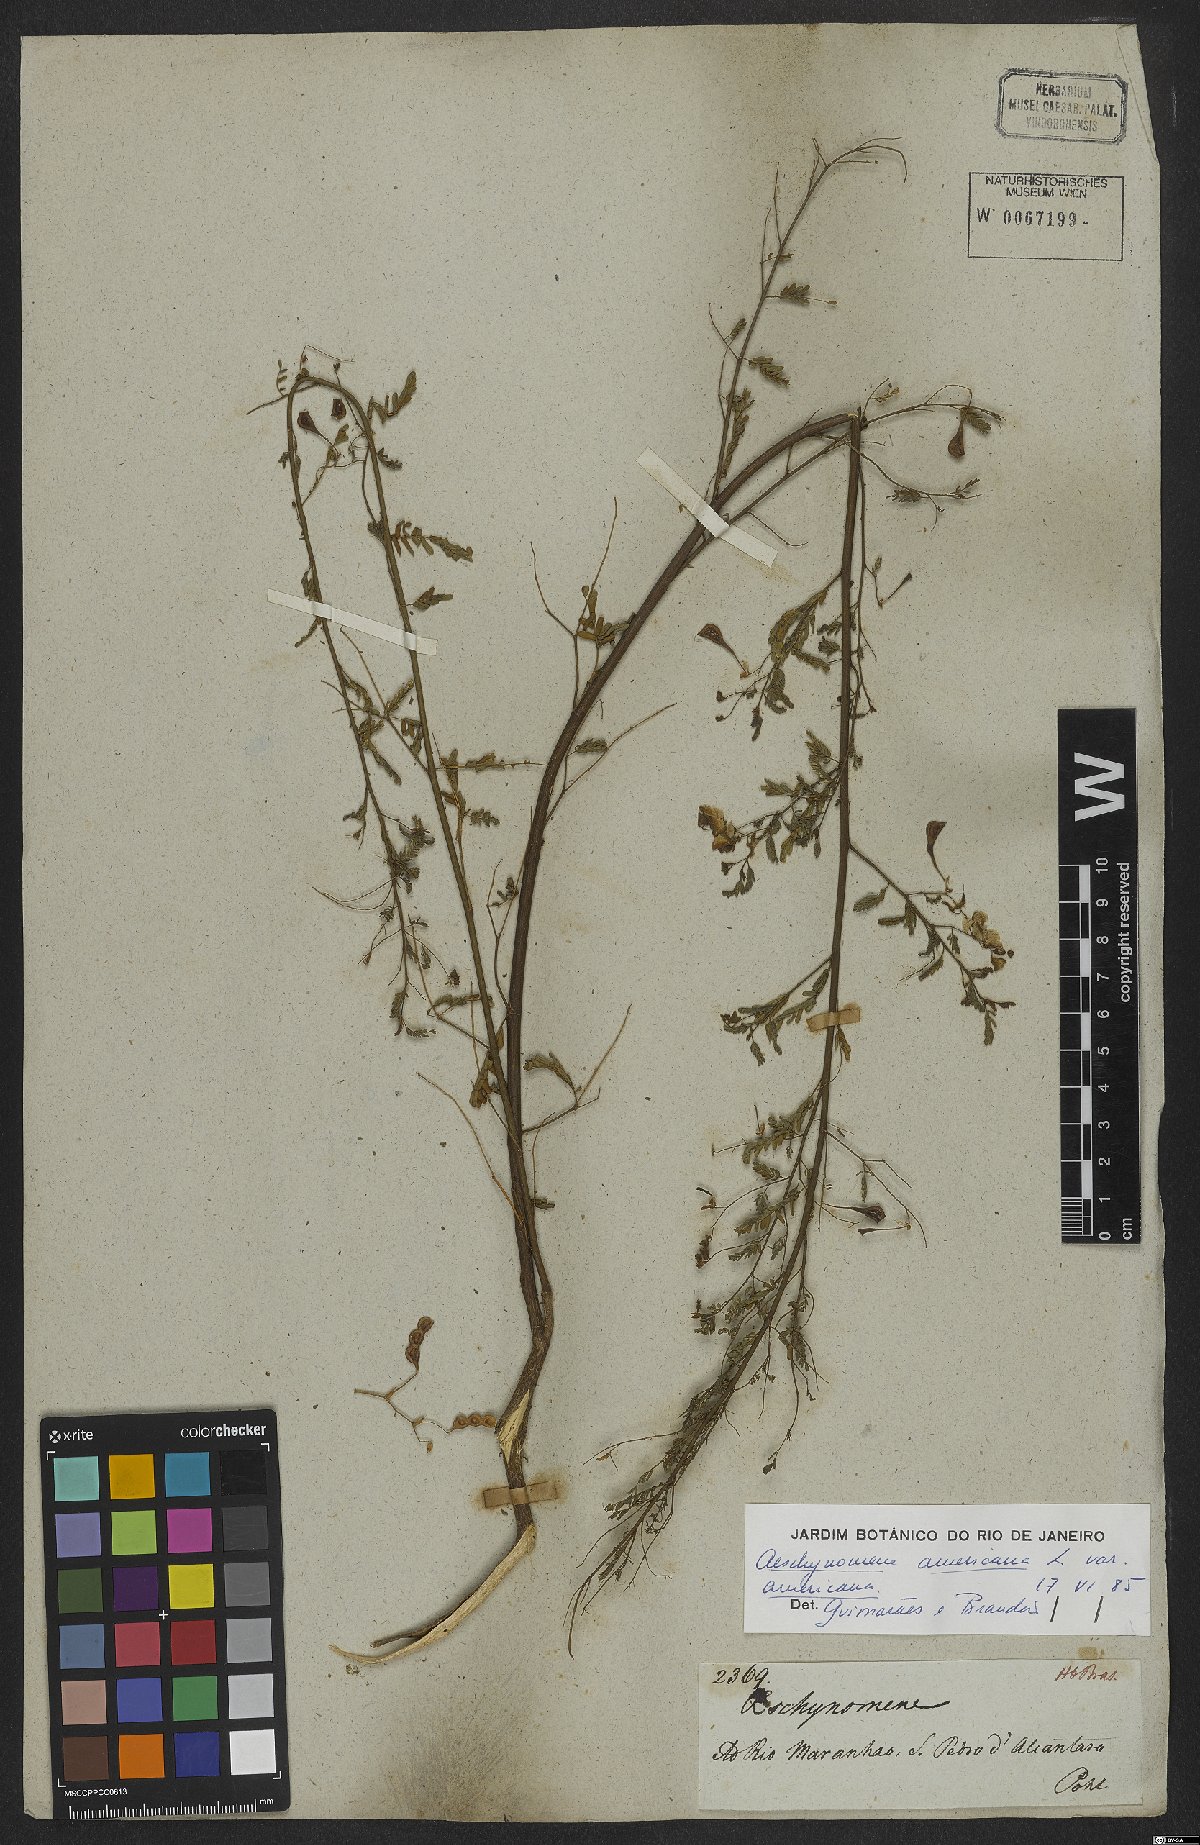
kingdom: Plantae
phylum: Tracheophyta
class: Magnoliopsida
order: Fabales
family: Fabaceae
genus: Aeschynomene
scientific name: Aeschynomene americana
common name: Joint-vetch
